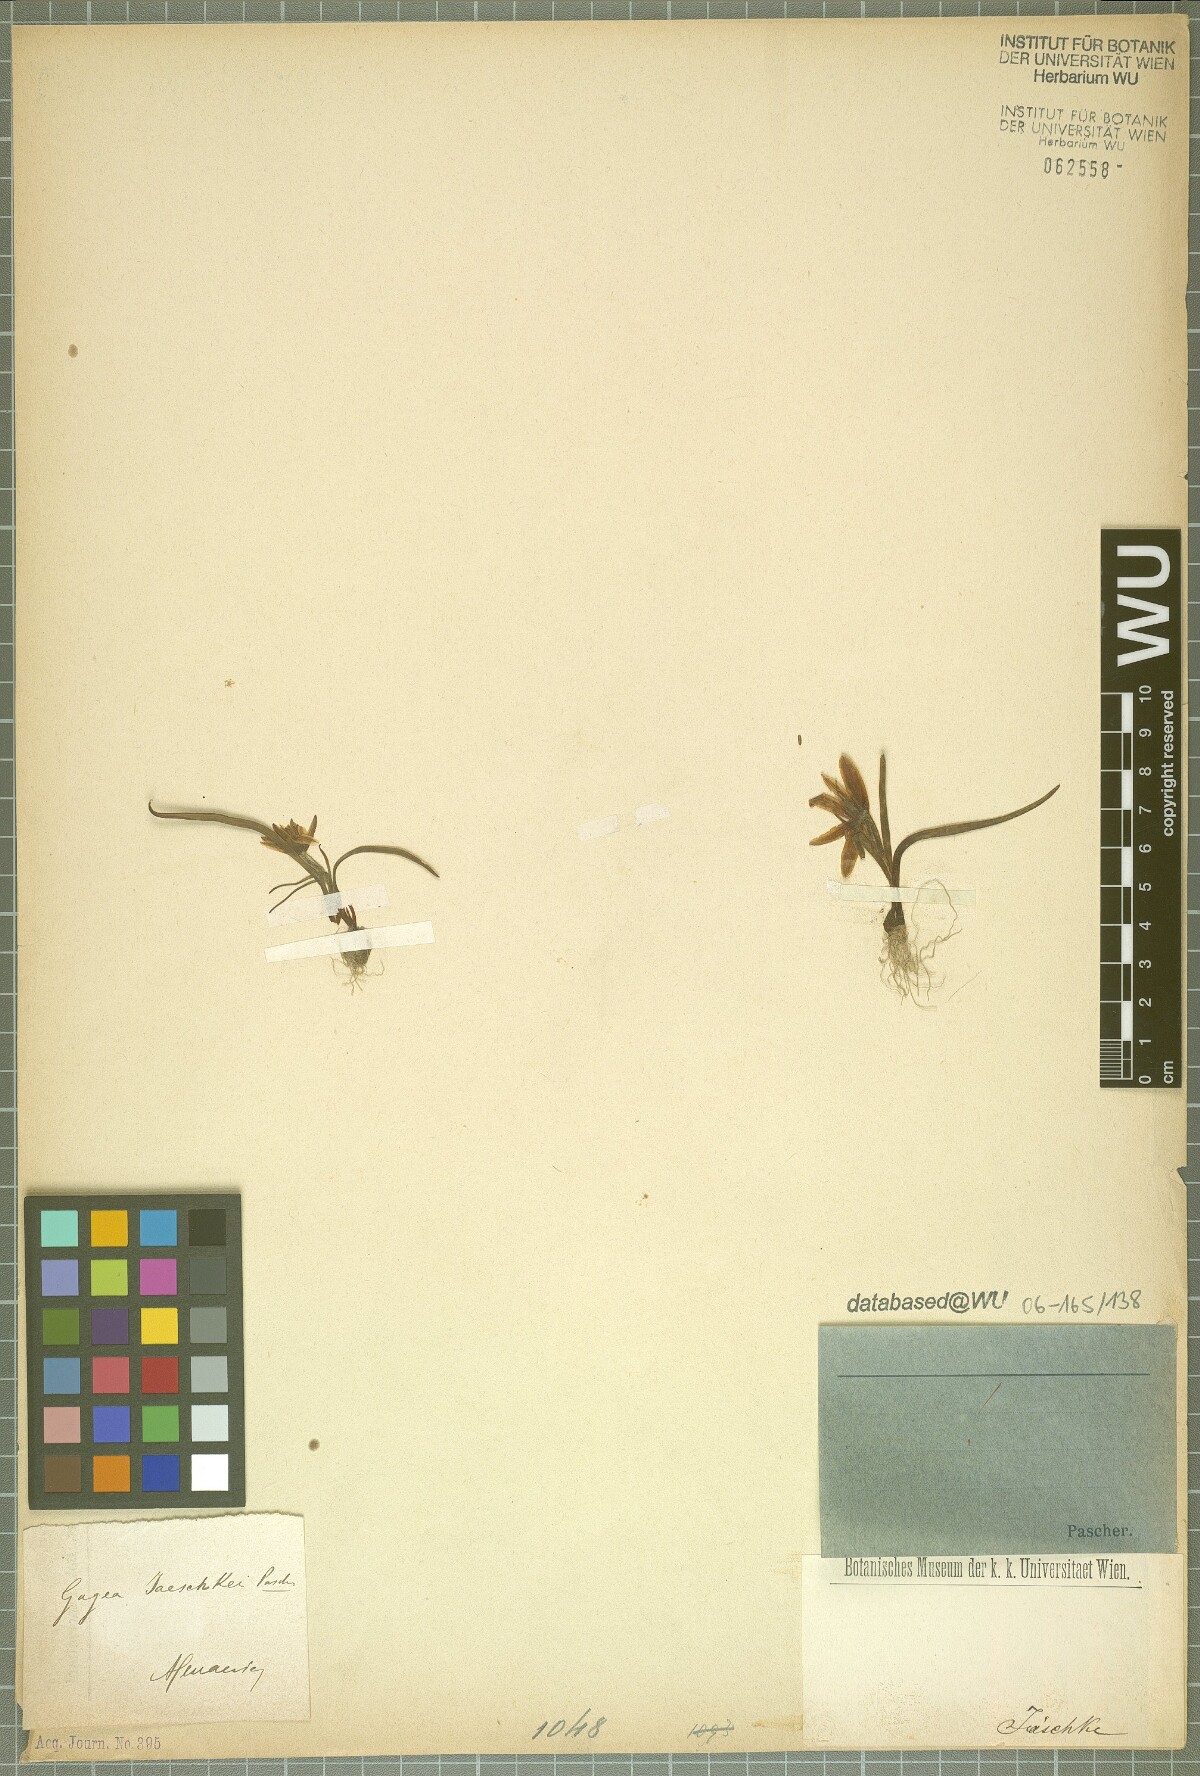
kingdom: Plantae
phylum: Tracheophyta
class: Liliopsida
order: Liliales
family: Liliaceae
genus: Gagea
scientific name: Gagea jaeschkei
